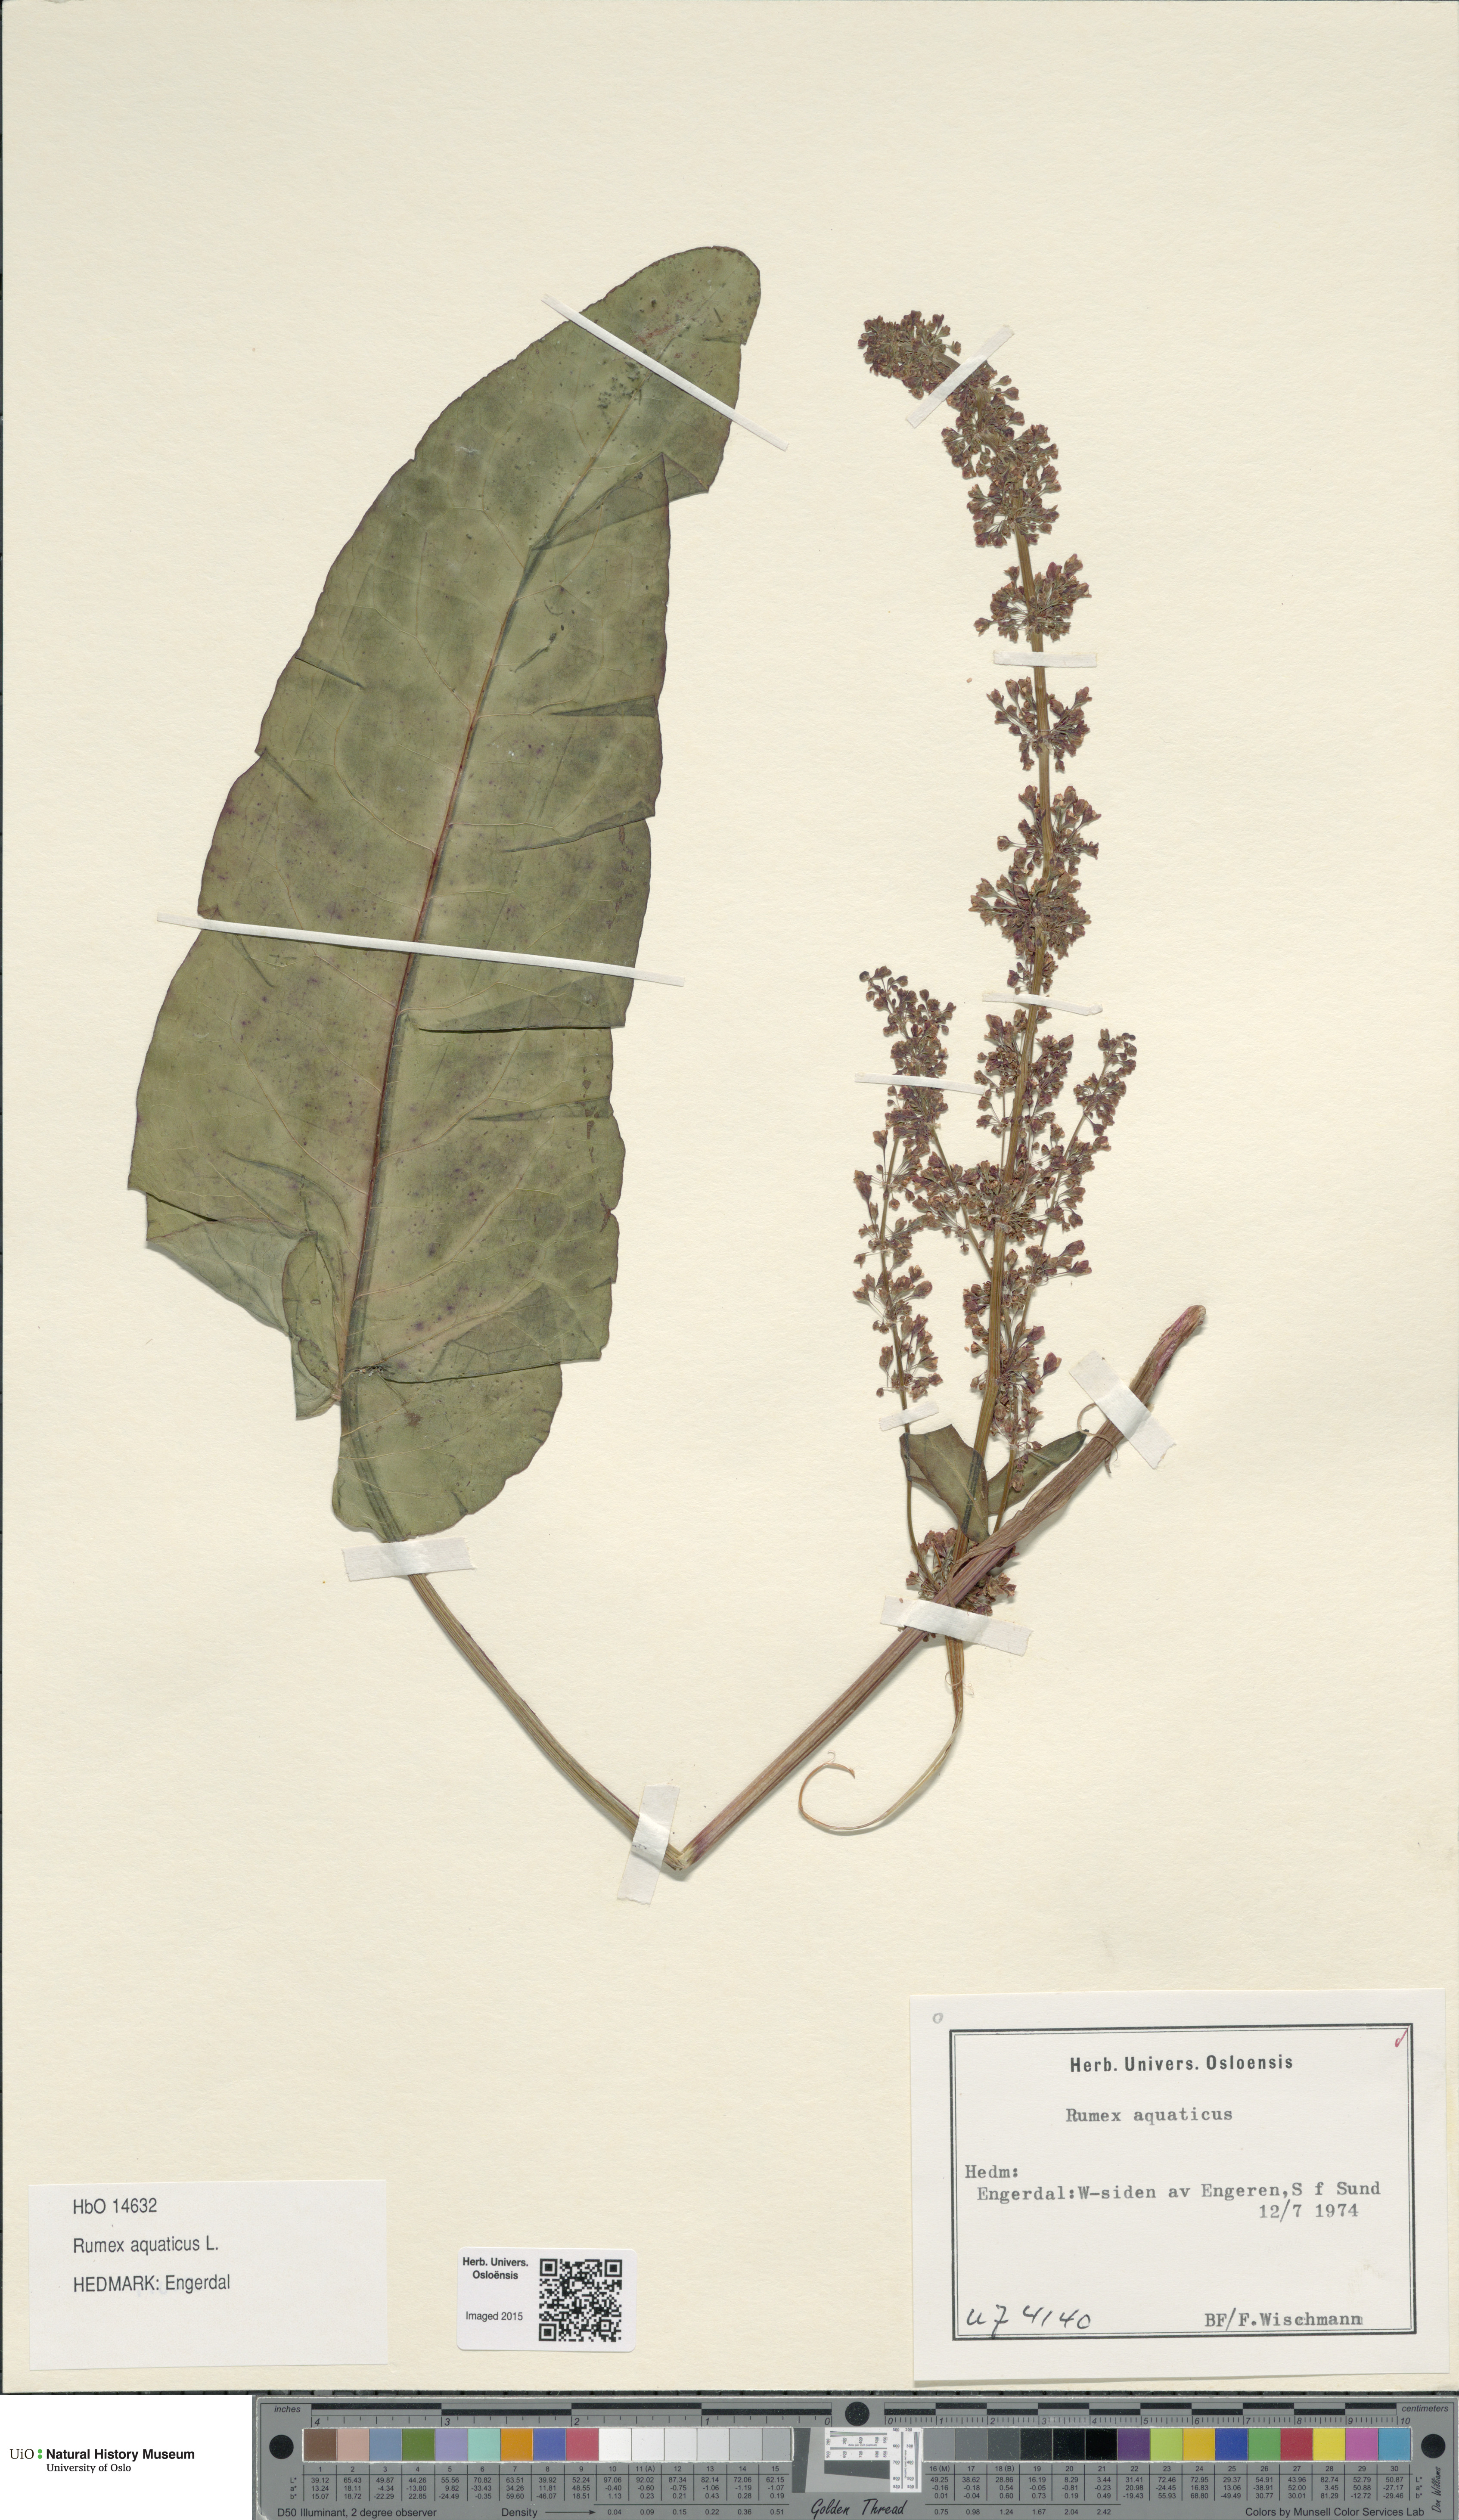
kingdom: Plantae
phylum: Tracheophyta
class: Magnoliopsida
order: Caryophyllales
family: Polygonaceae
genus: Rumex
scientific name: Rumex aquaticus
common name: Scottish dock
